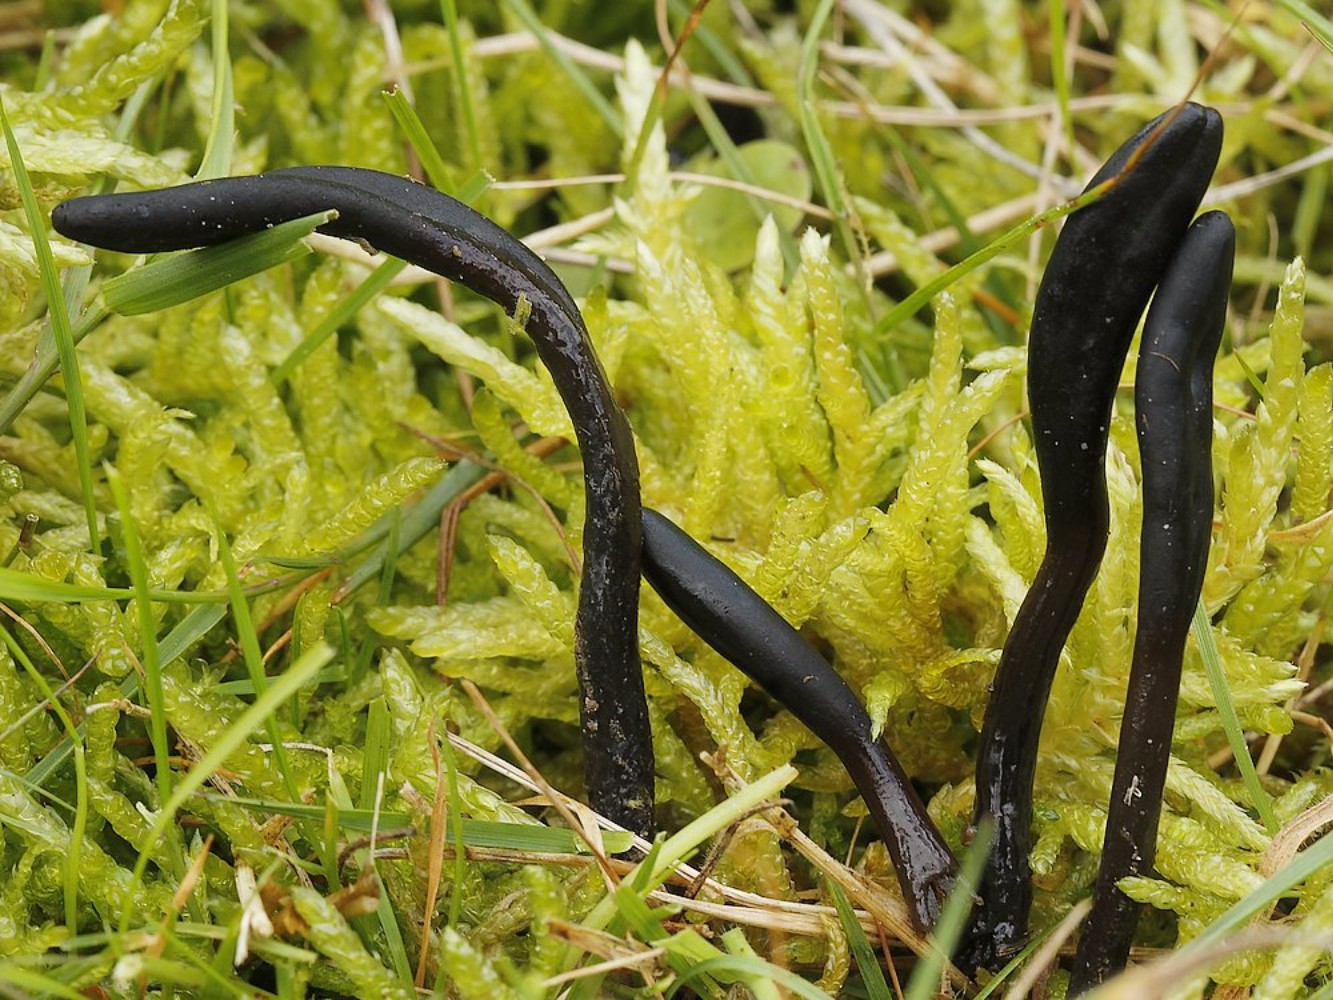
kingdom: Fungi
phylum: Ascomycota
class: Geoglossomycetes
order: Geoglossales
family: Geoglossaceae
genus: Glutinoglossum
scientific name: Glutinoglossum glutinosum
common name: slimet jordtunge
